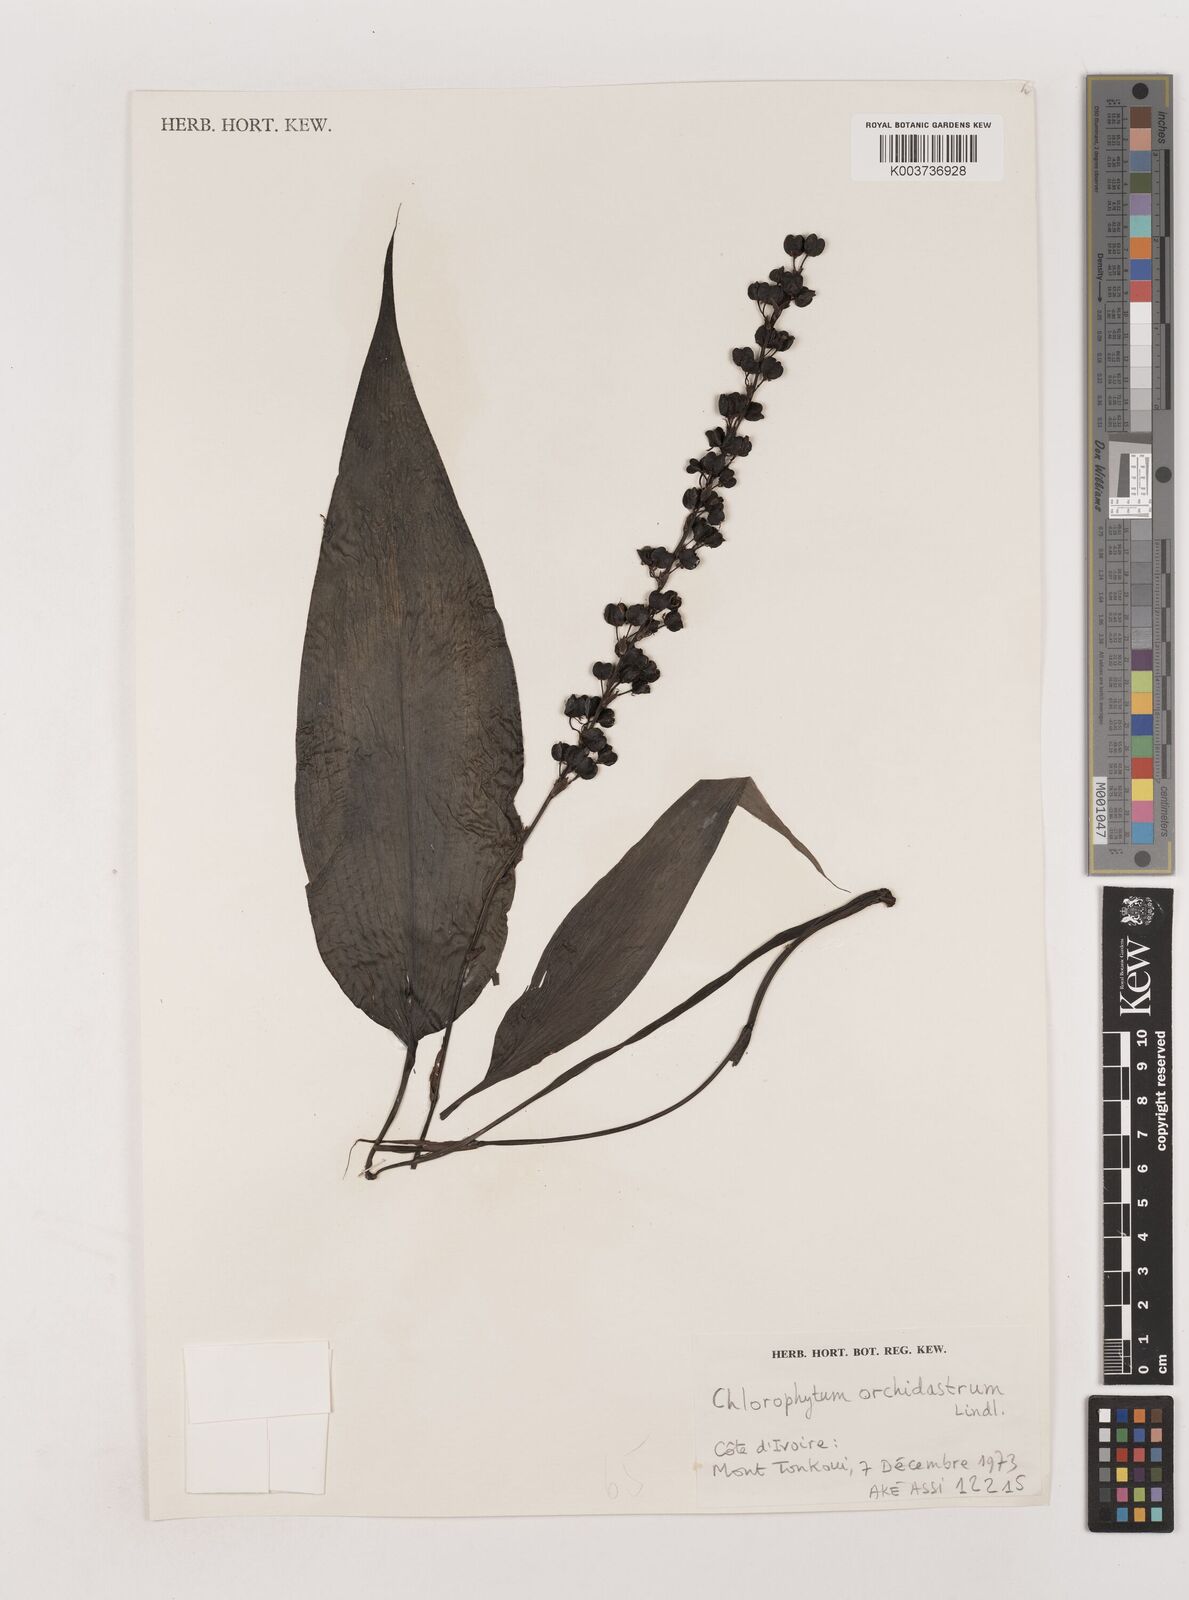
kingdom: Plantae
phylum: Tracheophyta
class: Liliopsida
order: Asparagales
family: Asparagaceae
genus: Chlorophytum
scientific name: Chlorophytum orchidastrum
